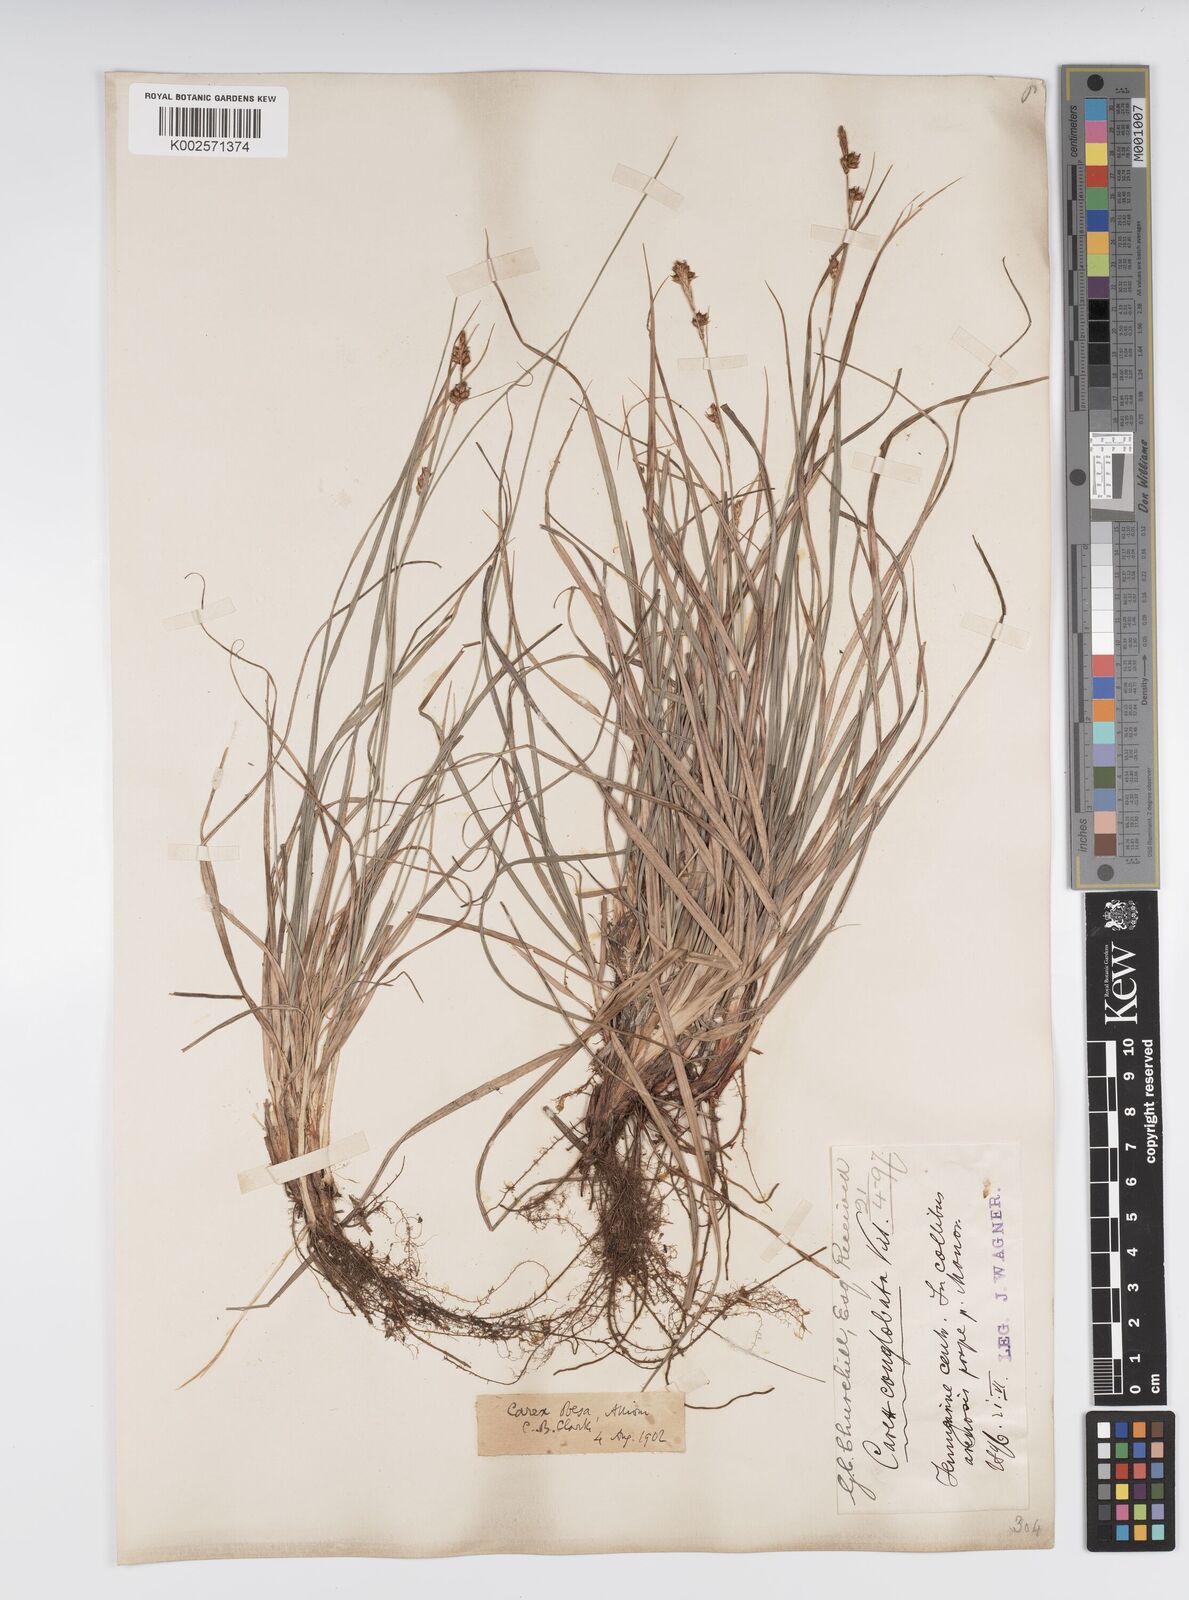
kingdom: Plantae
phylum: Tracheophyta
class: Liliopsida
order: Poales
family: Cyperaceae
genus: Carex
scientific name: Carex liparocarpos
